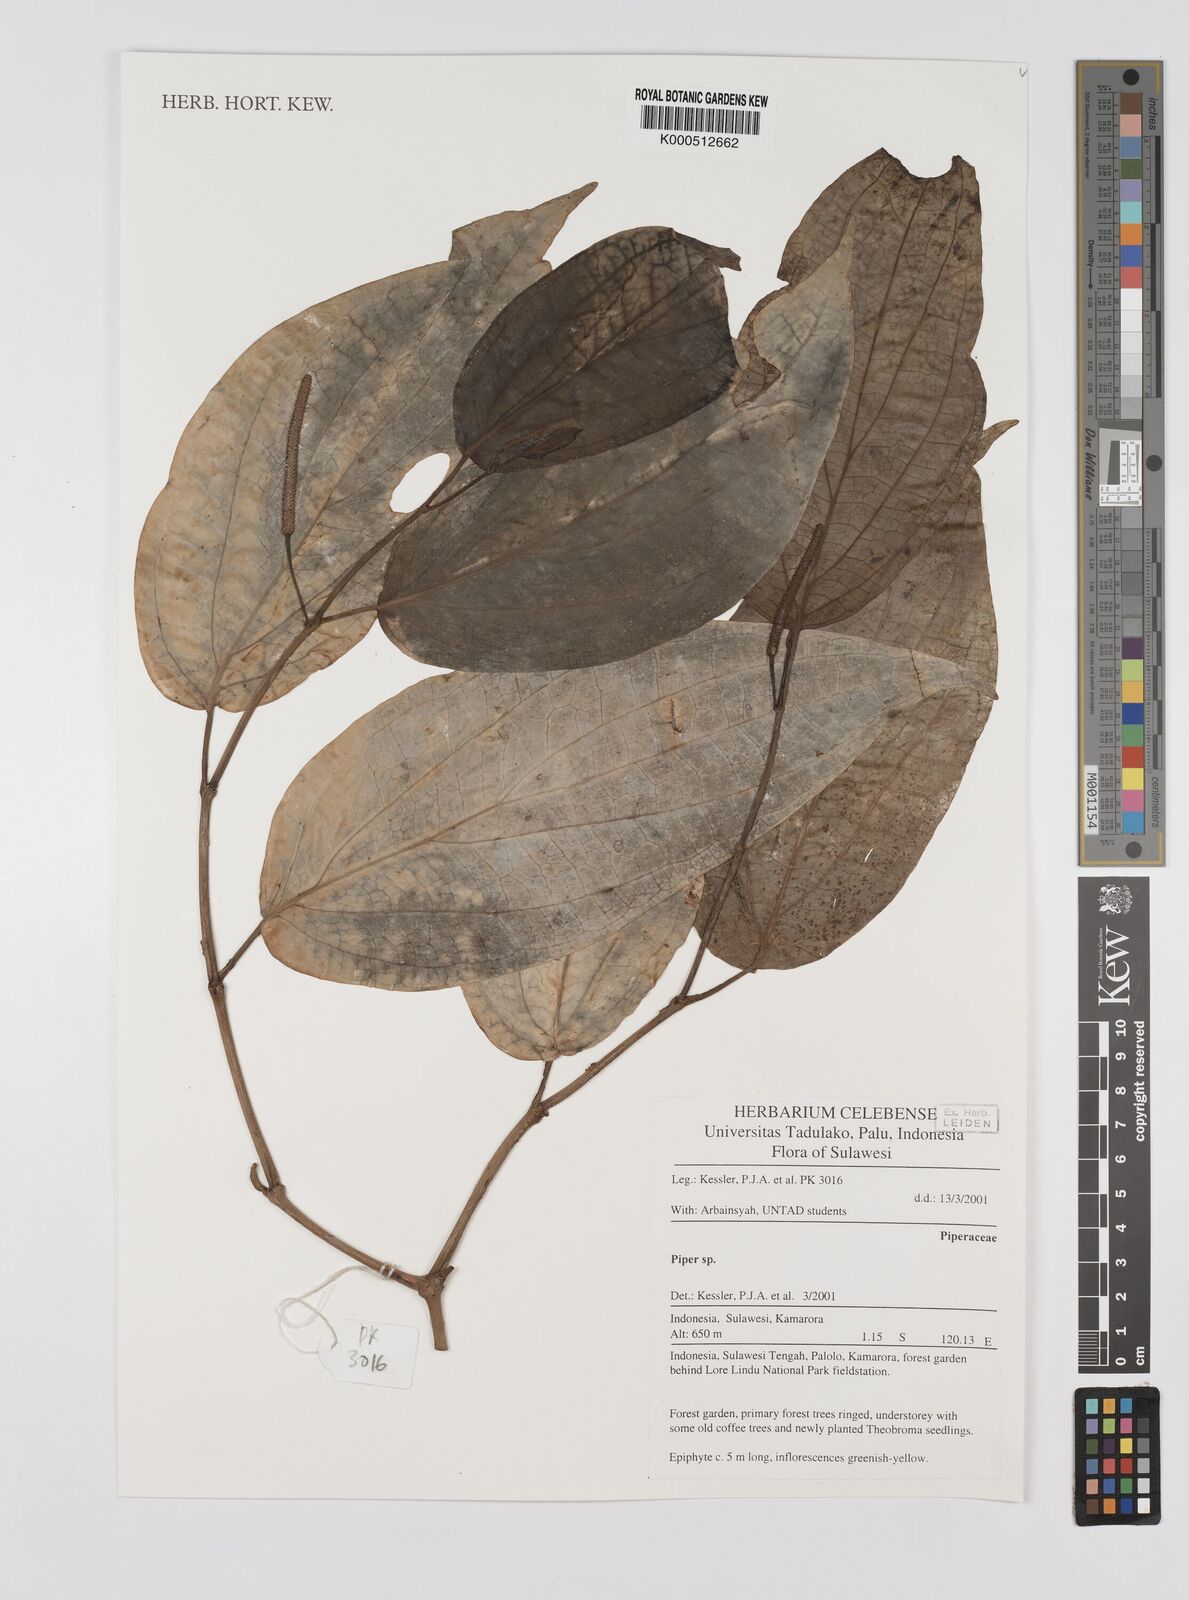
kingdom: Plantae
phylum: Tracheophyta
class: Magnoliopsida
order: Piperales
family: Piperaceae
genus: Piper
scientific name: Piper
